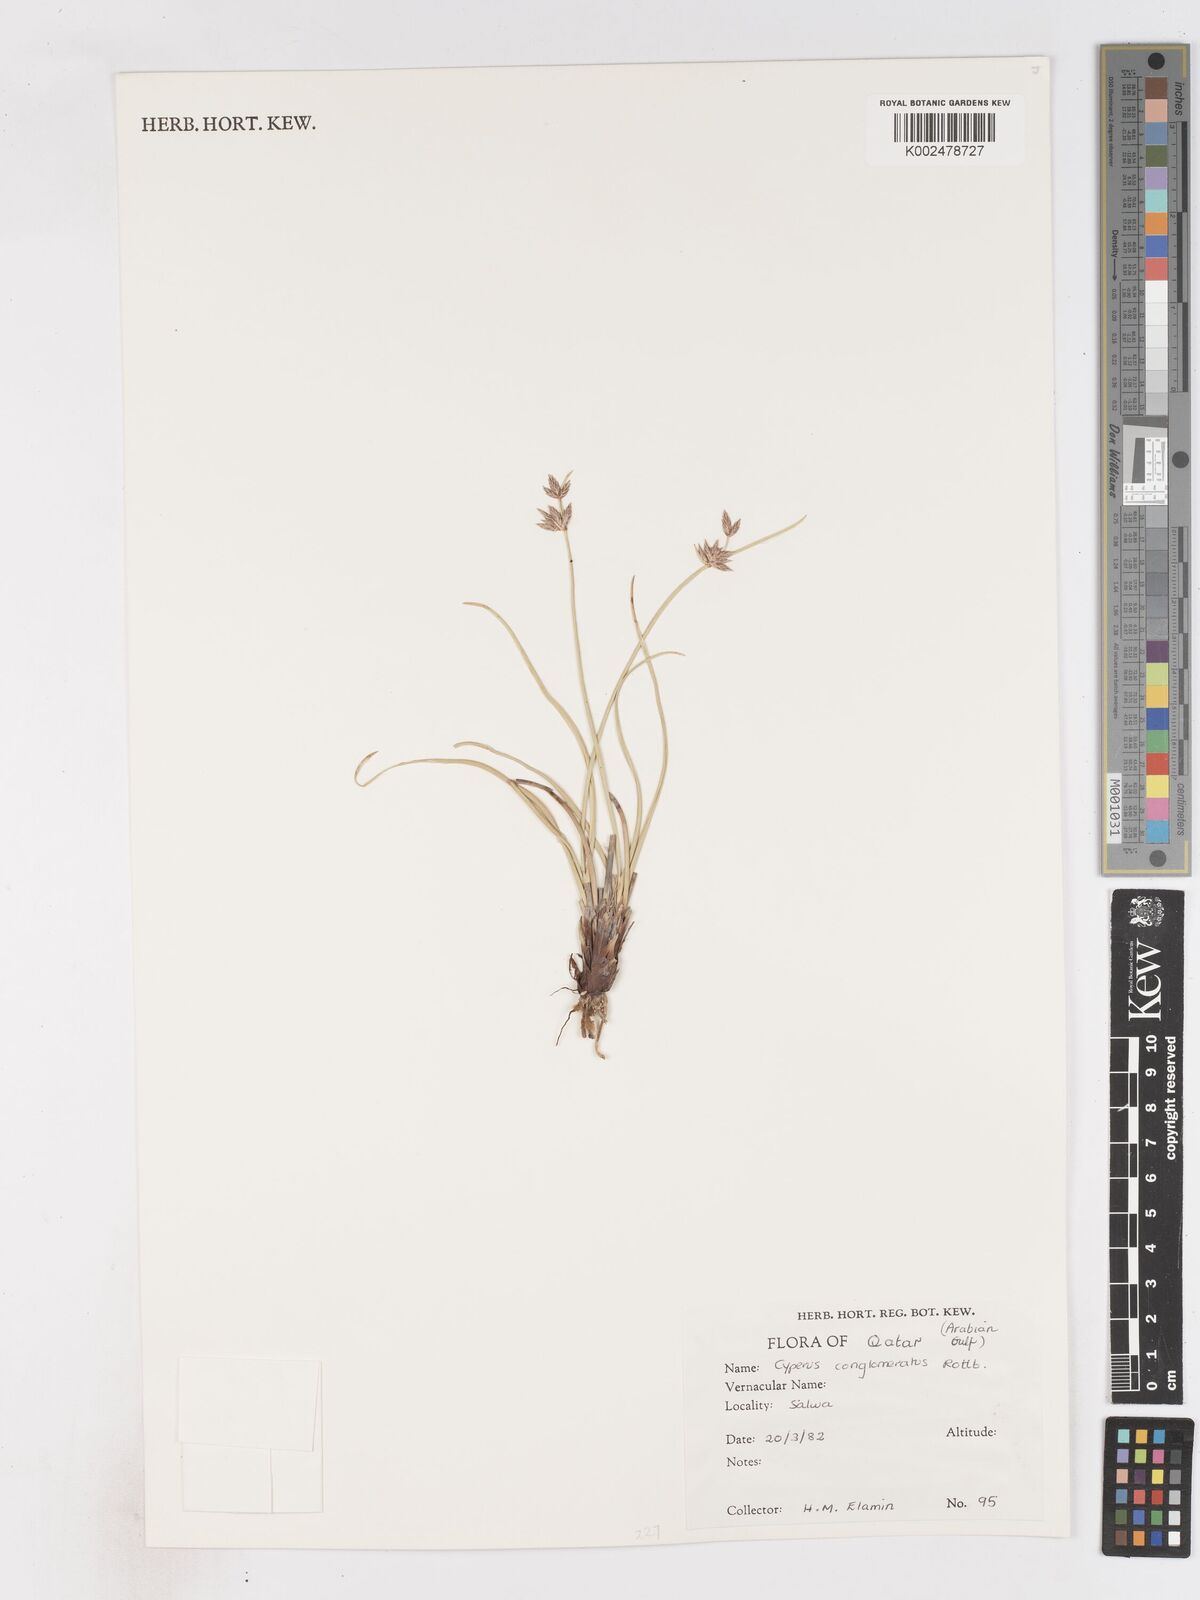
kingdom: Plantae
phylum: Tracheophyta
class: Liliopsida
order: Poales
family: Cyperaceae
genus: Cyperus
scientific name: Cyperus conglomeratus
